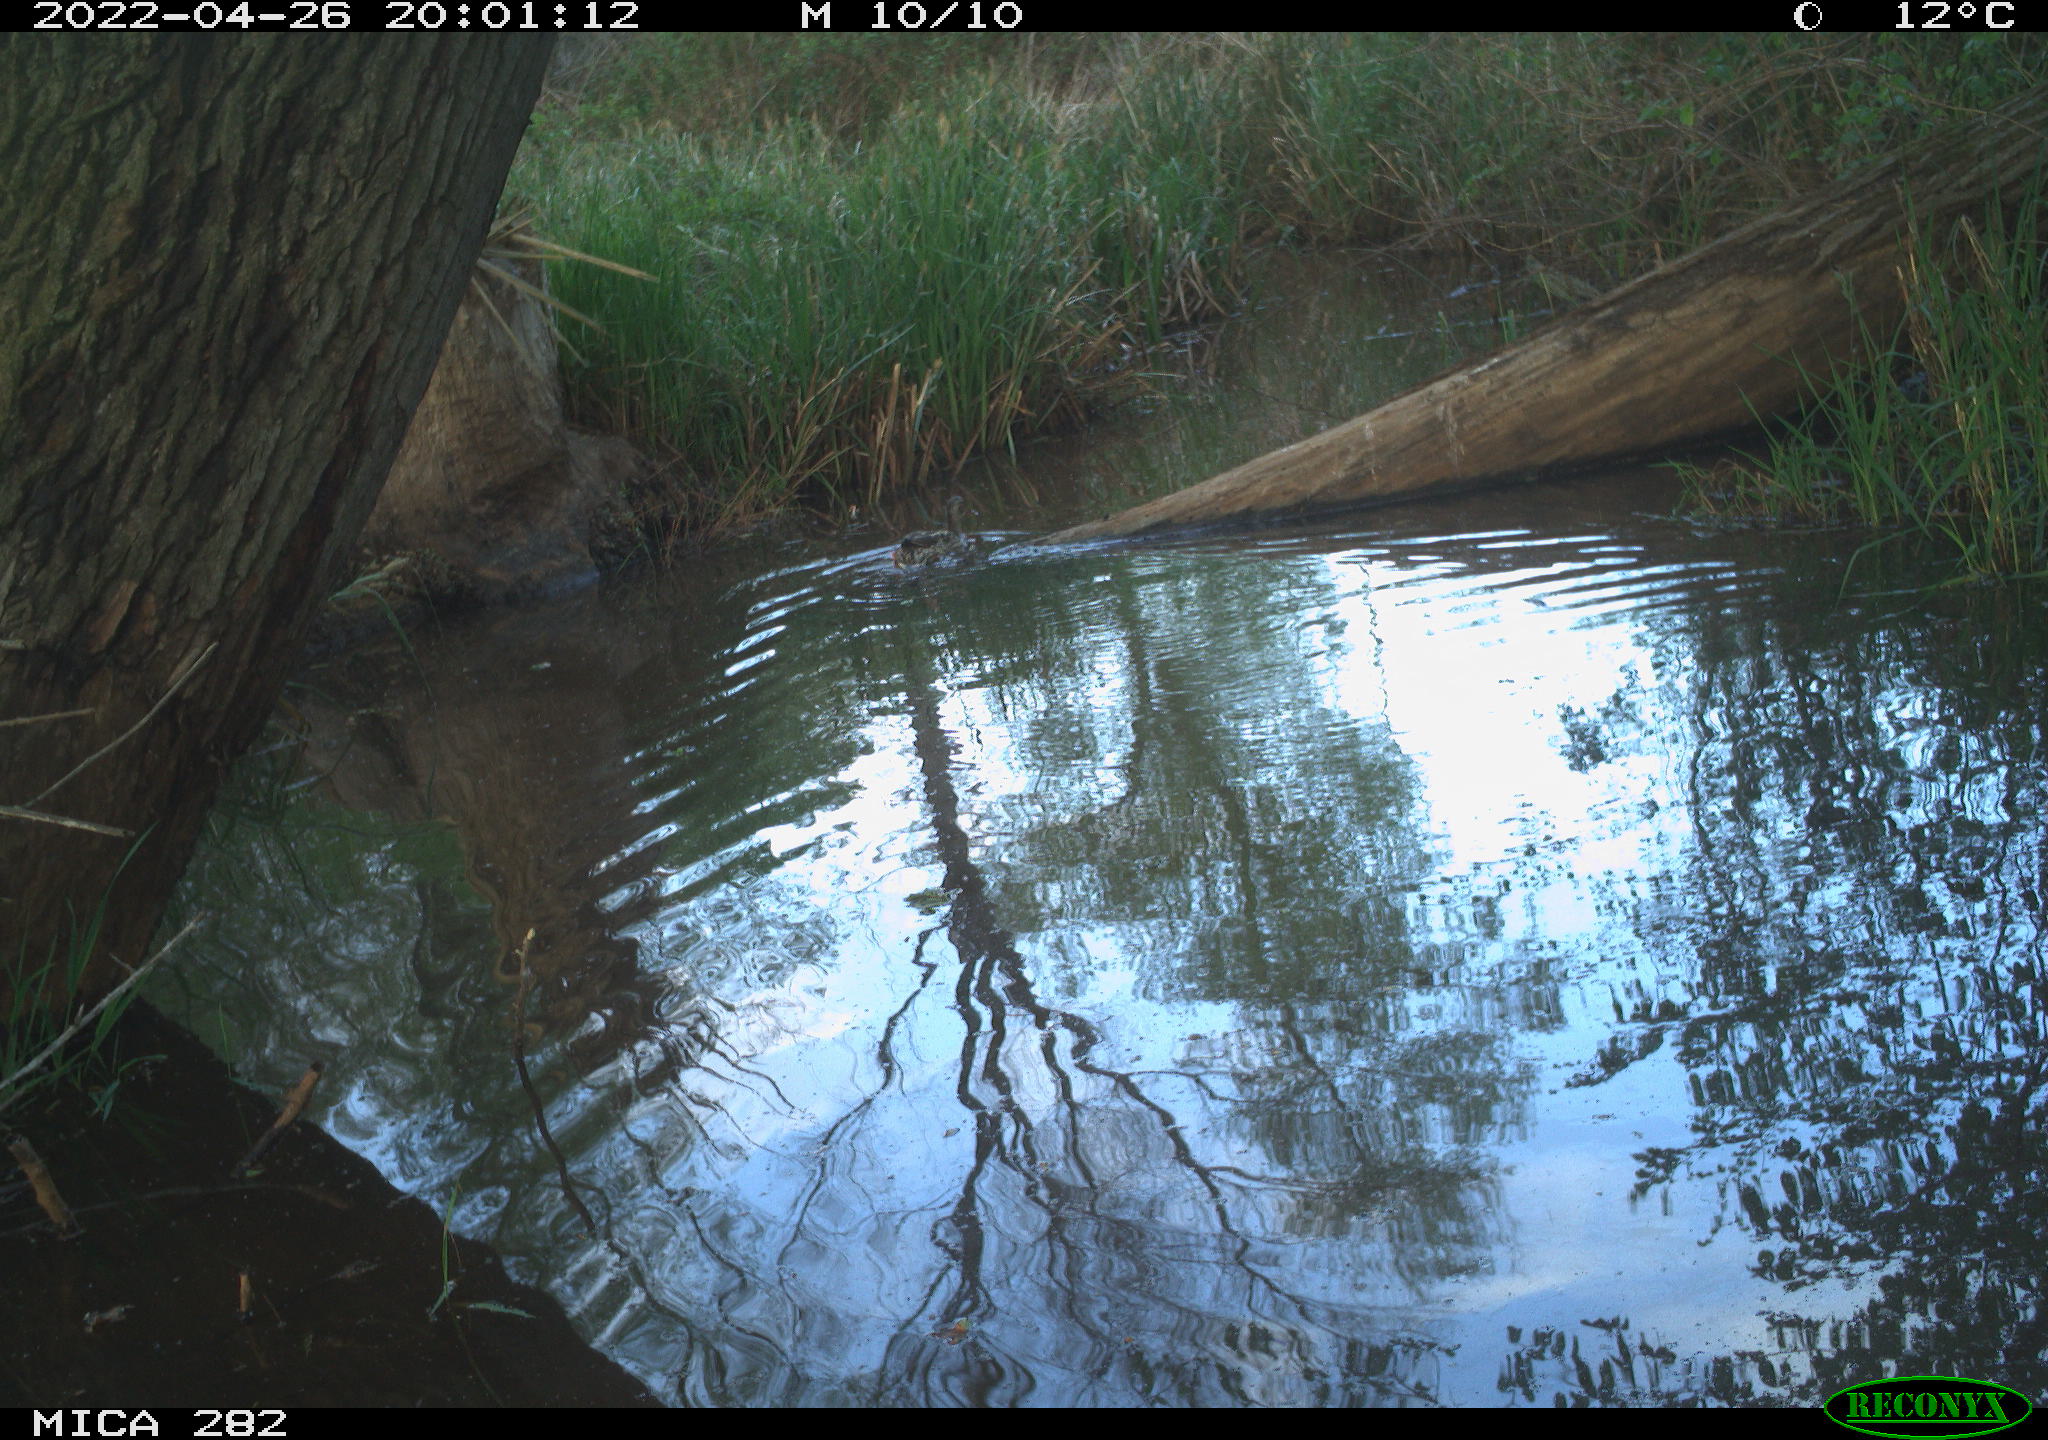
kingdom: Animalia
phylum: Chordata
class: Aves
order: Anseriformes
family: Anatidae
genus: Anas
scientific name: Anas platyrhynchos
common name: Mallard
